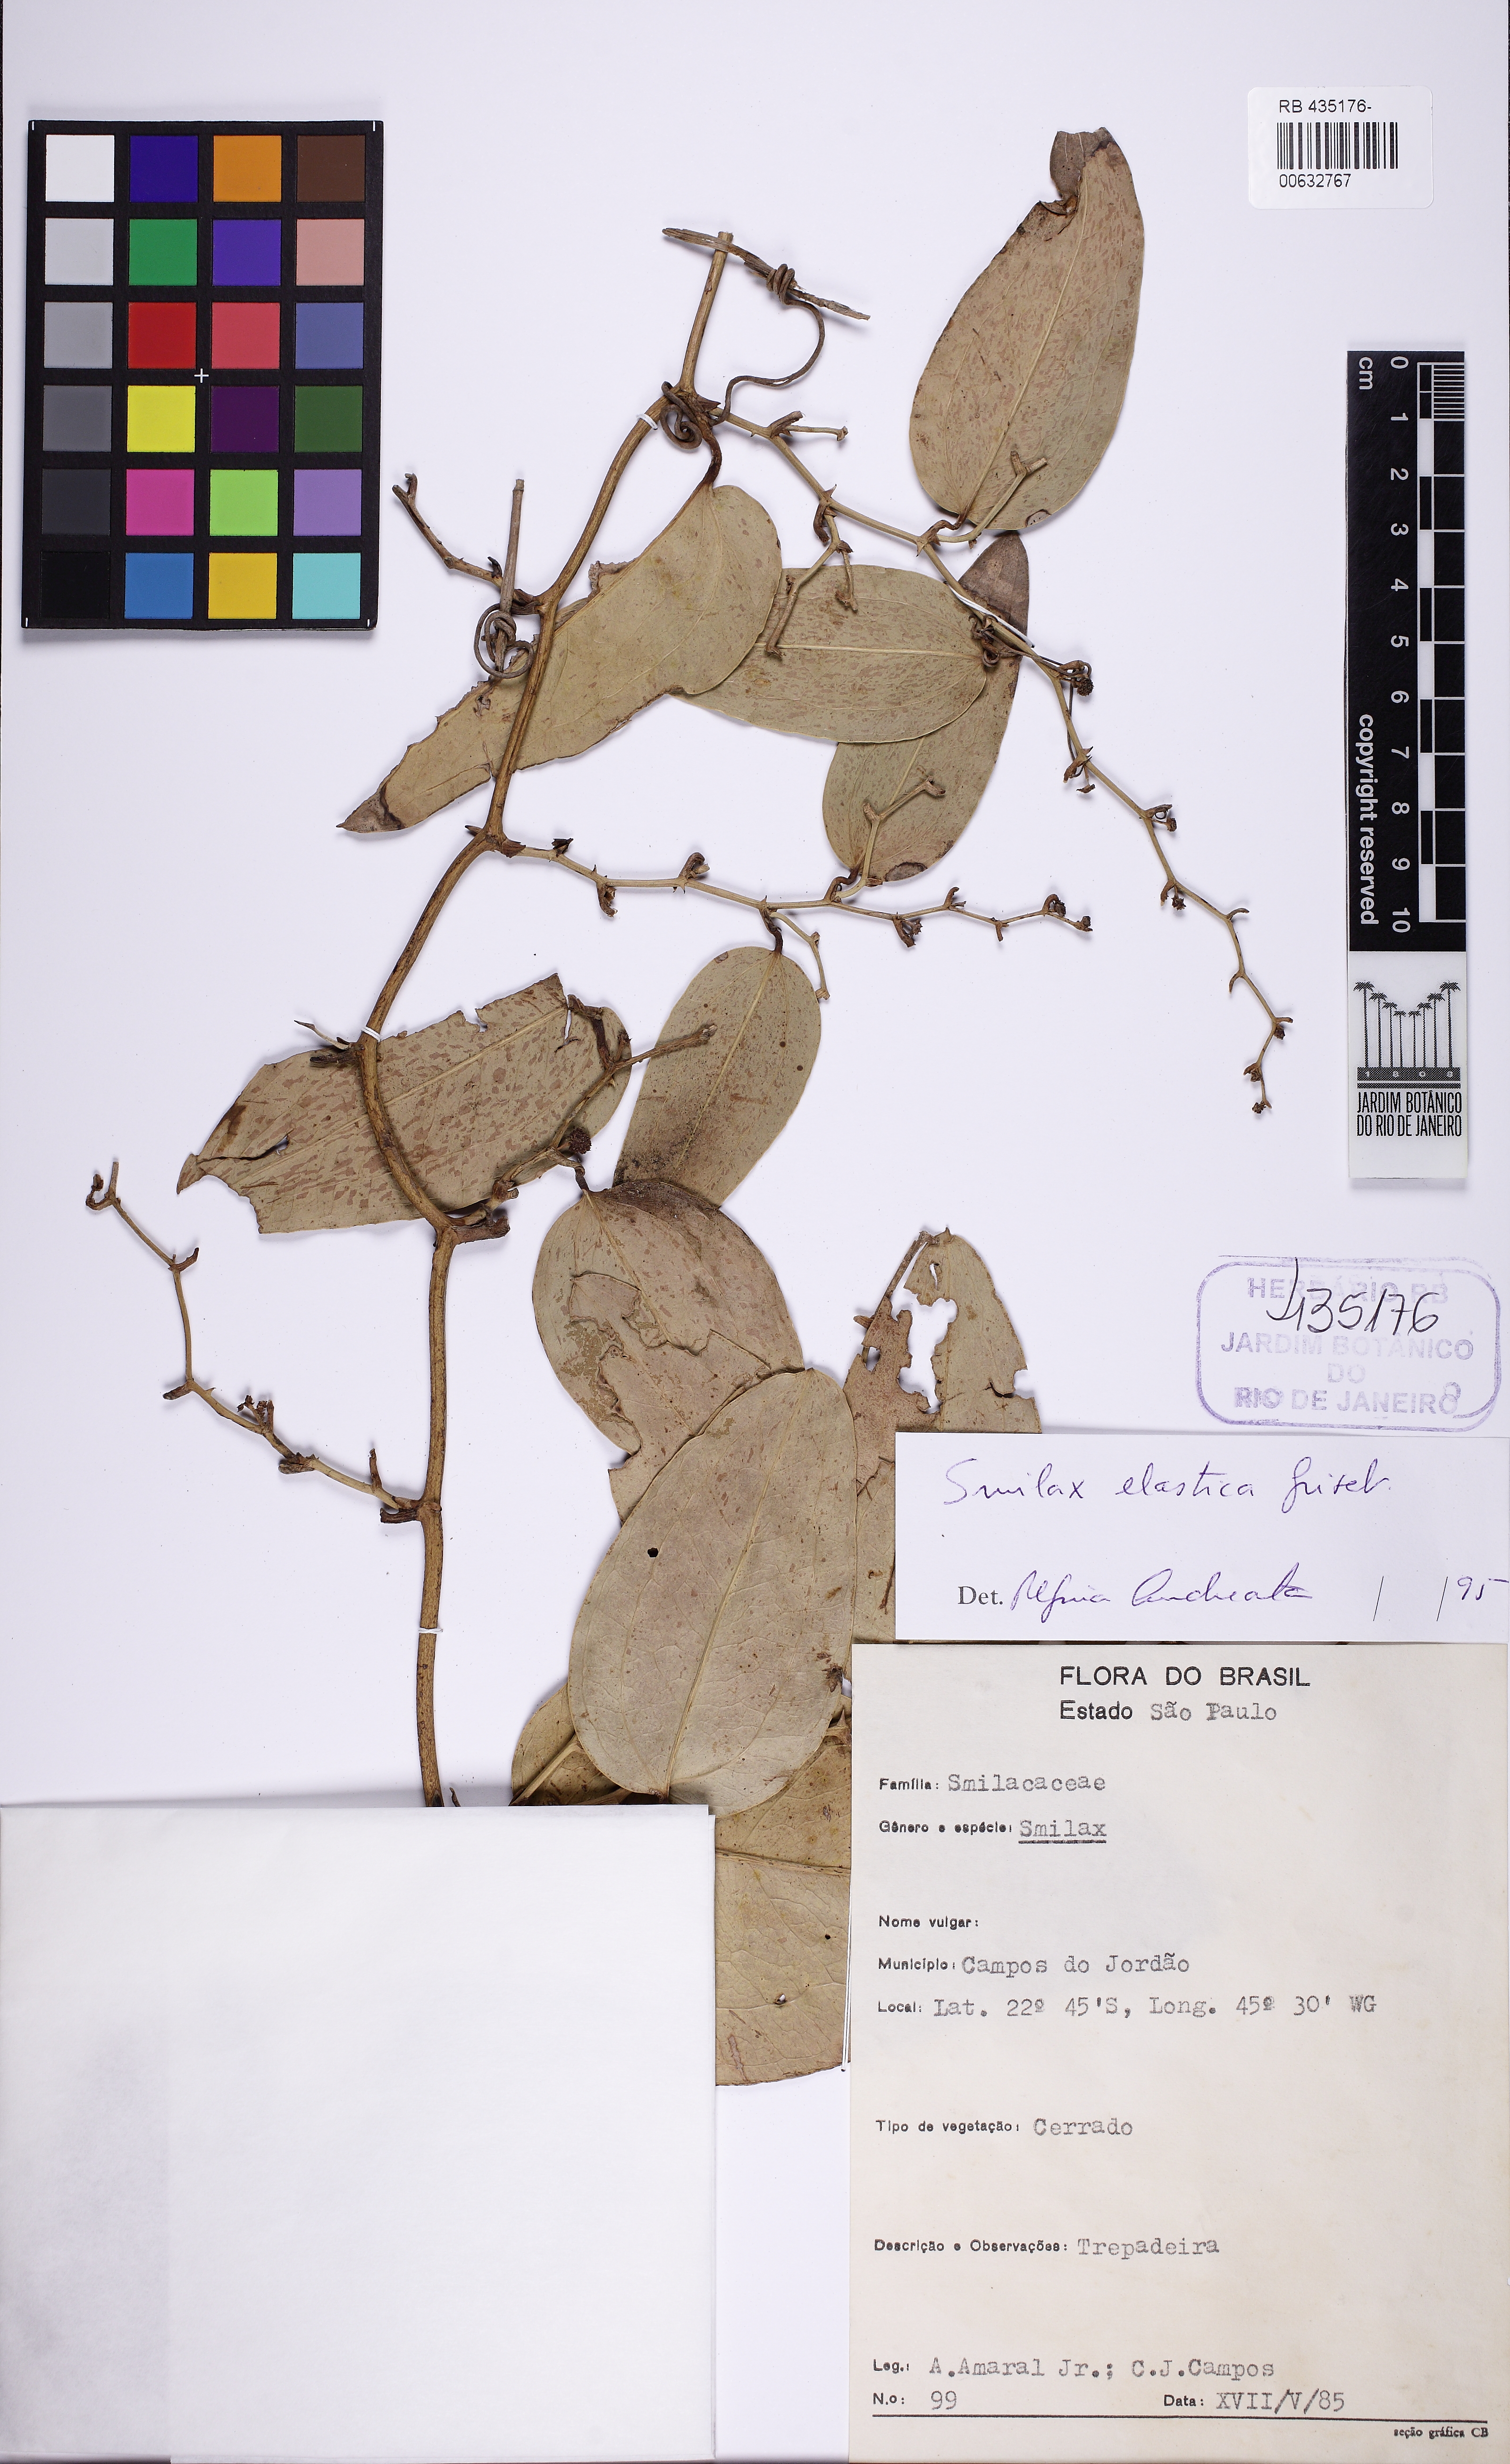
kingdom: Plantae
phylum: Tracheophyta
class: Liliopsida
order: Liliales
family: Smilacaceae
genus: Smilax
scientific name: Smilax elastica
